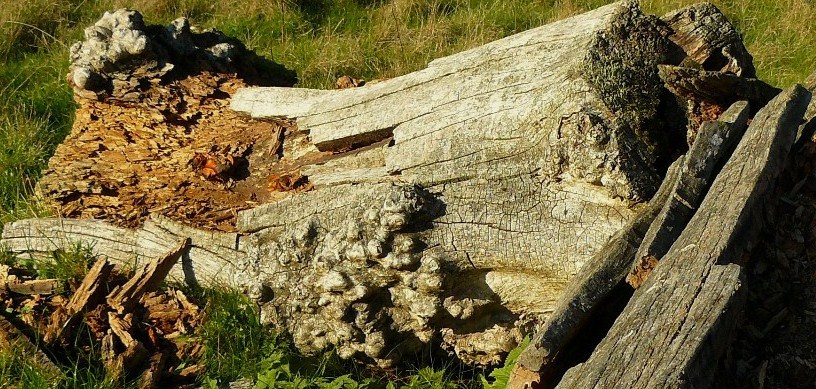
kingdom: Fungi
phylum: Basidiomycota
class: Agaricomycetes
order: Polyporales
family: Polyporaceae
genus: Picipes
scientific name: Picipes badius
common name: kastaniebrun stilkporesvamp
